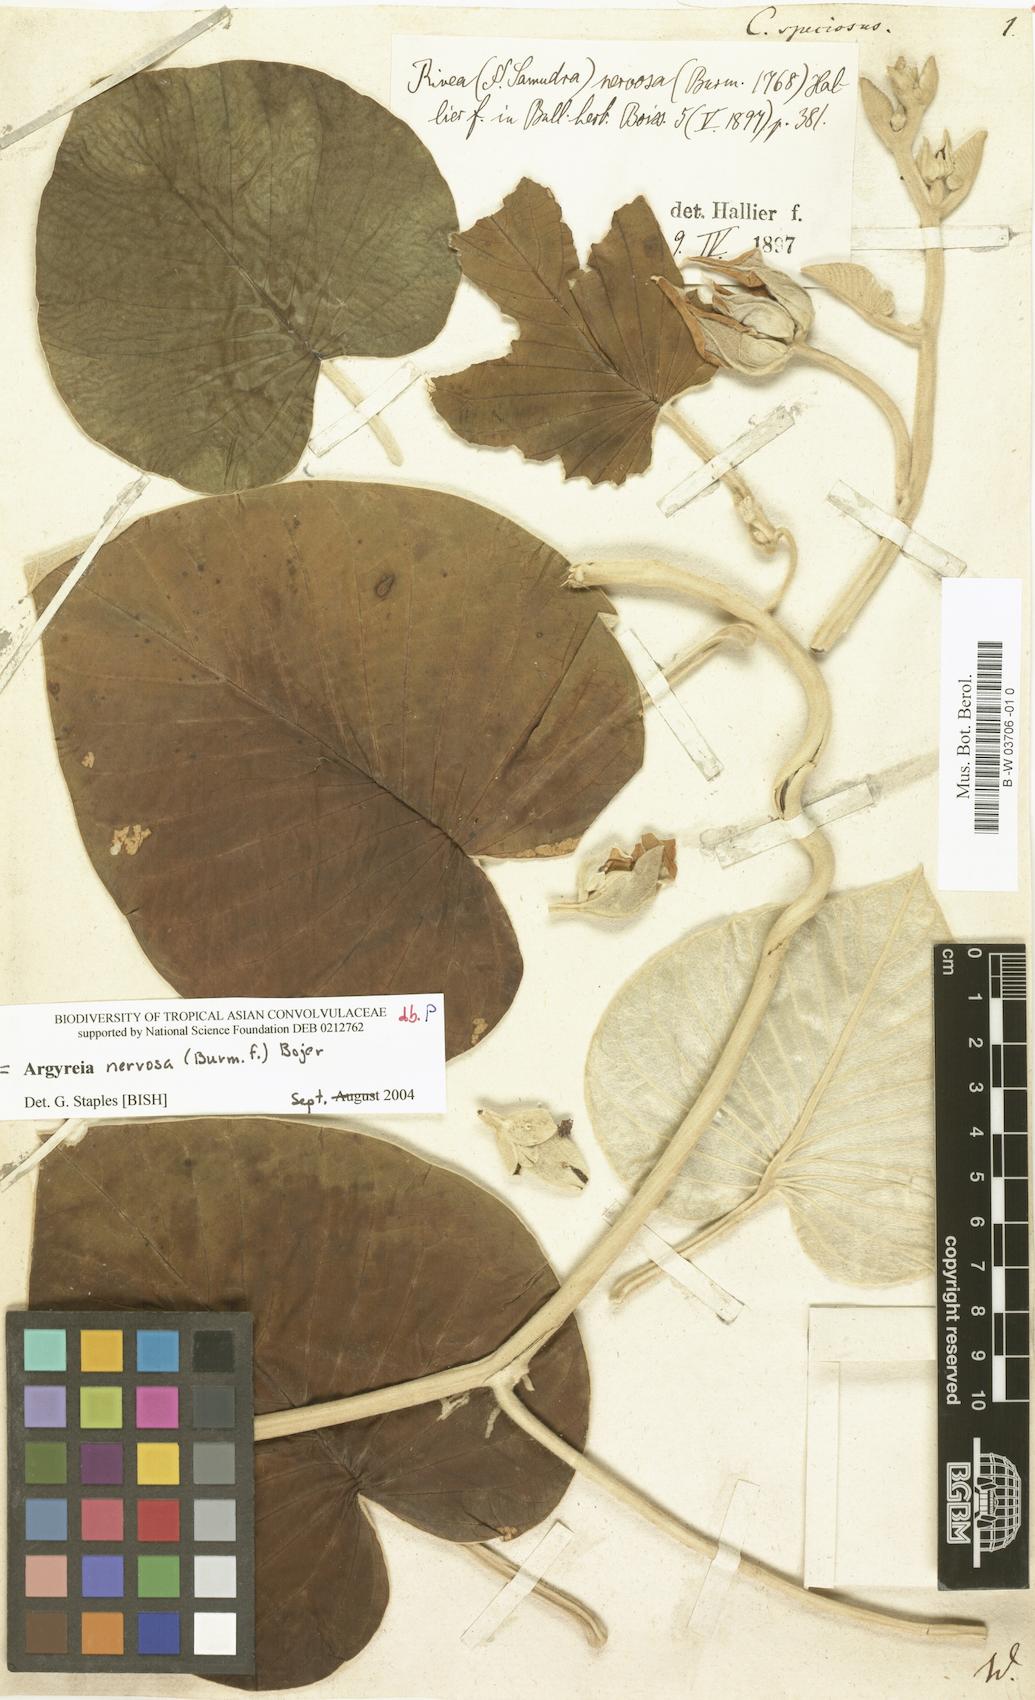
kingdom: Plantae
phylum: Tracheophyta
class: Magnoliopsida
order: Solanales
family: Convolvulaceae
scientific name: Convolvulaceae
